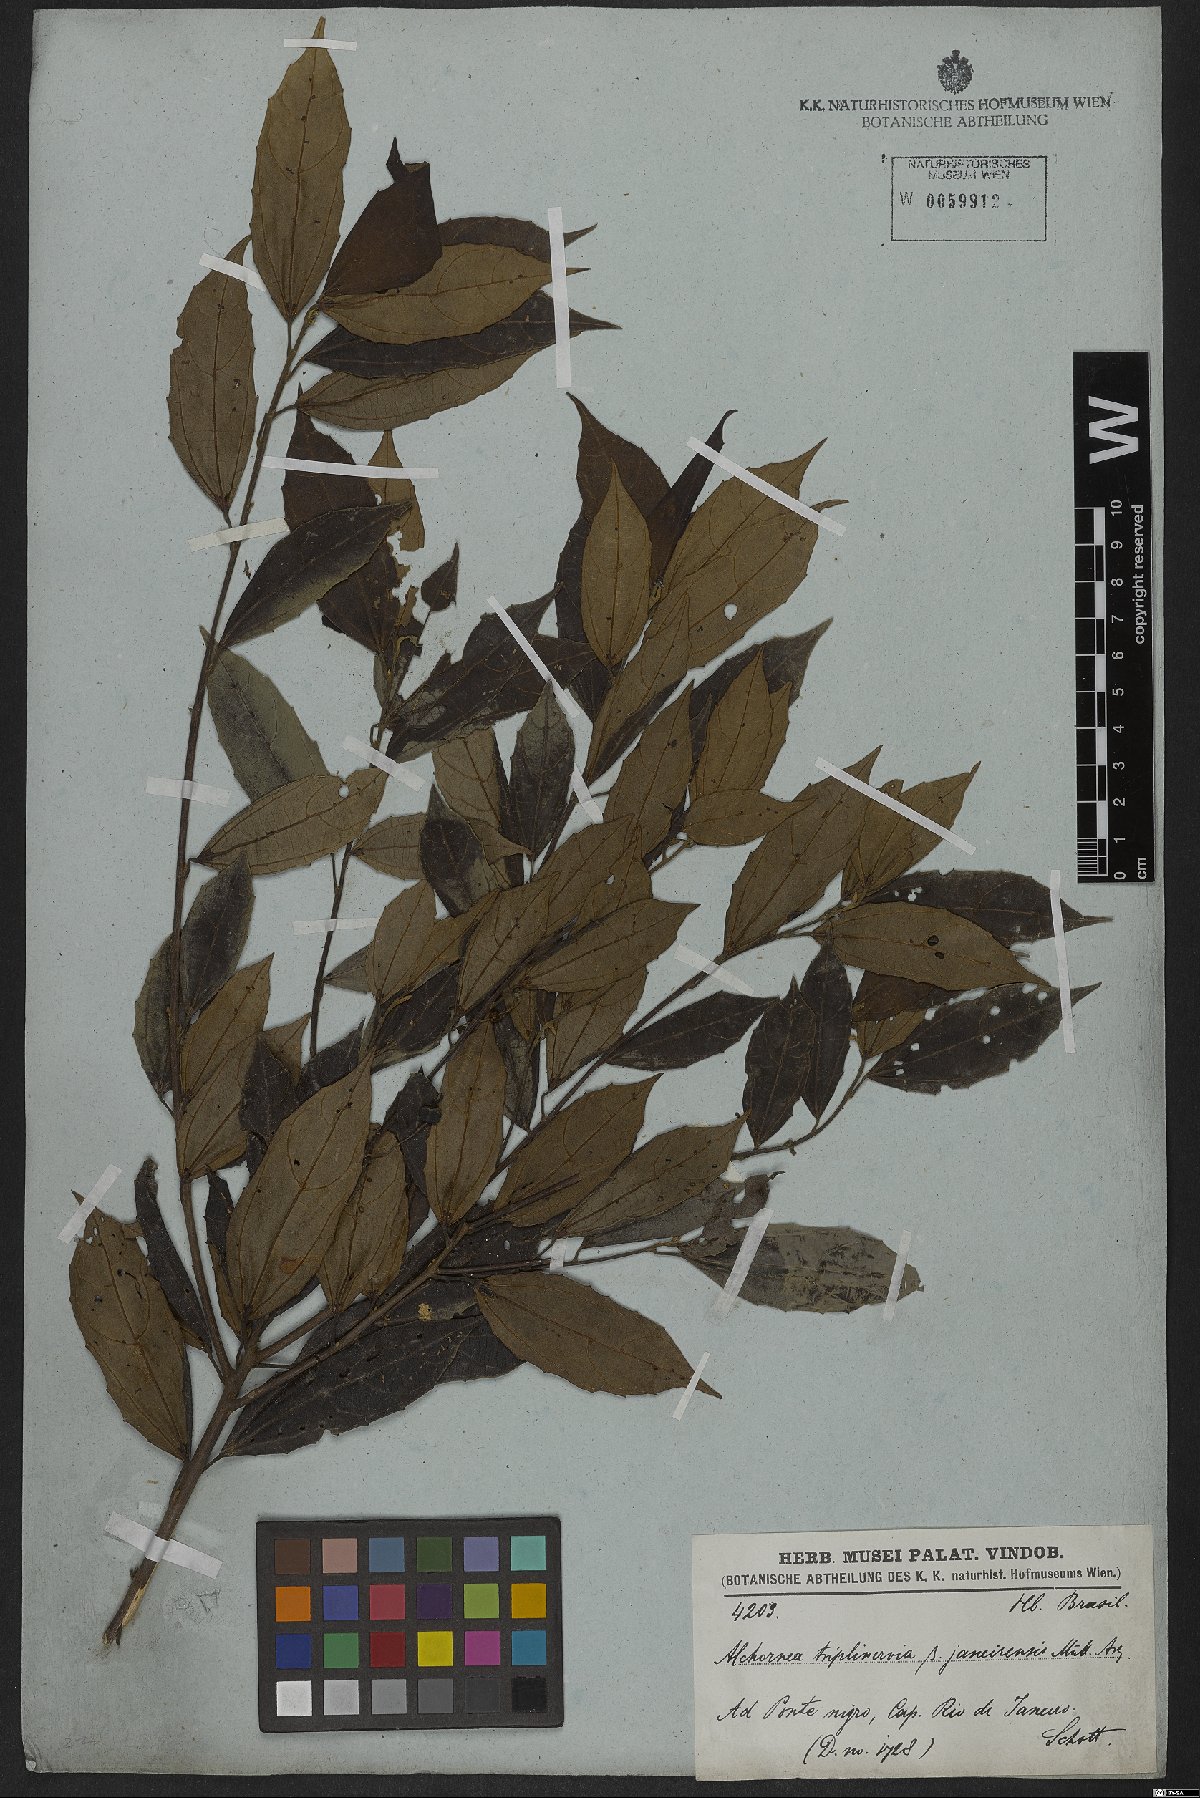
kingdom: Plantae
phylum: Tracheophyta
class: Magnoliopsida
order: Malpighiales
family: Euphorbiaceae
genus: Alchornea
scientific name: Alchornea triplinervia
